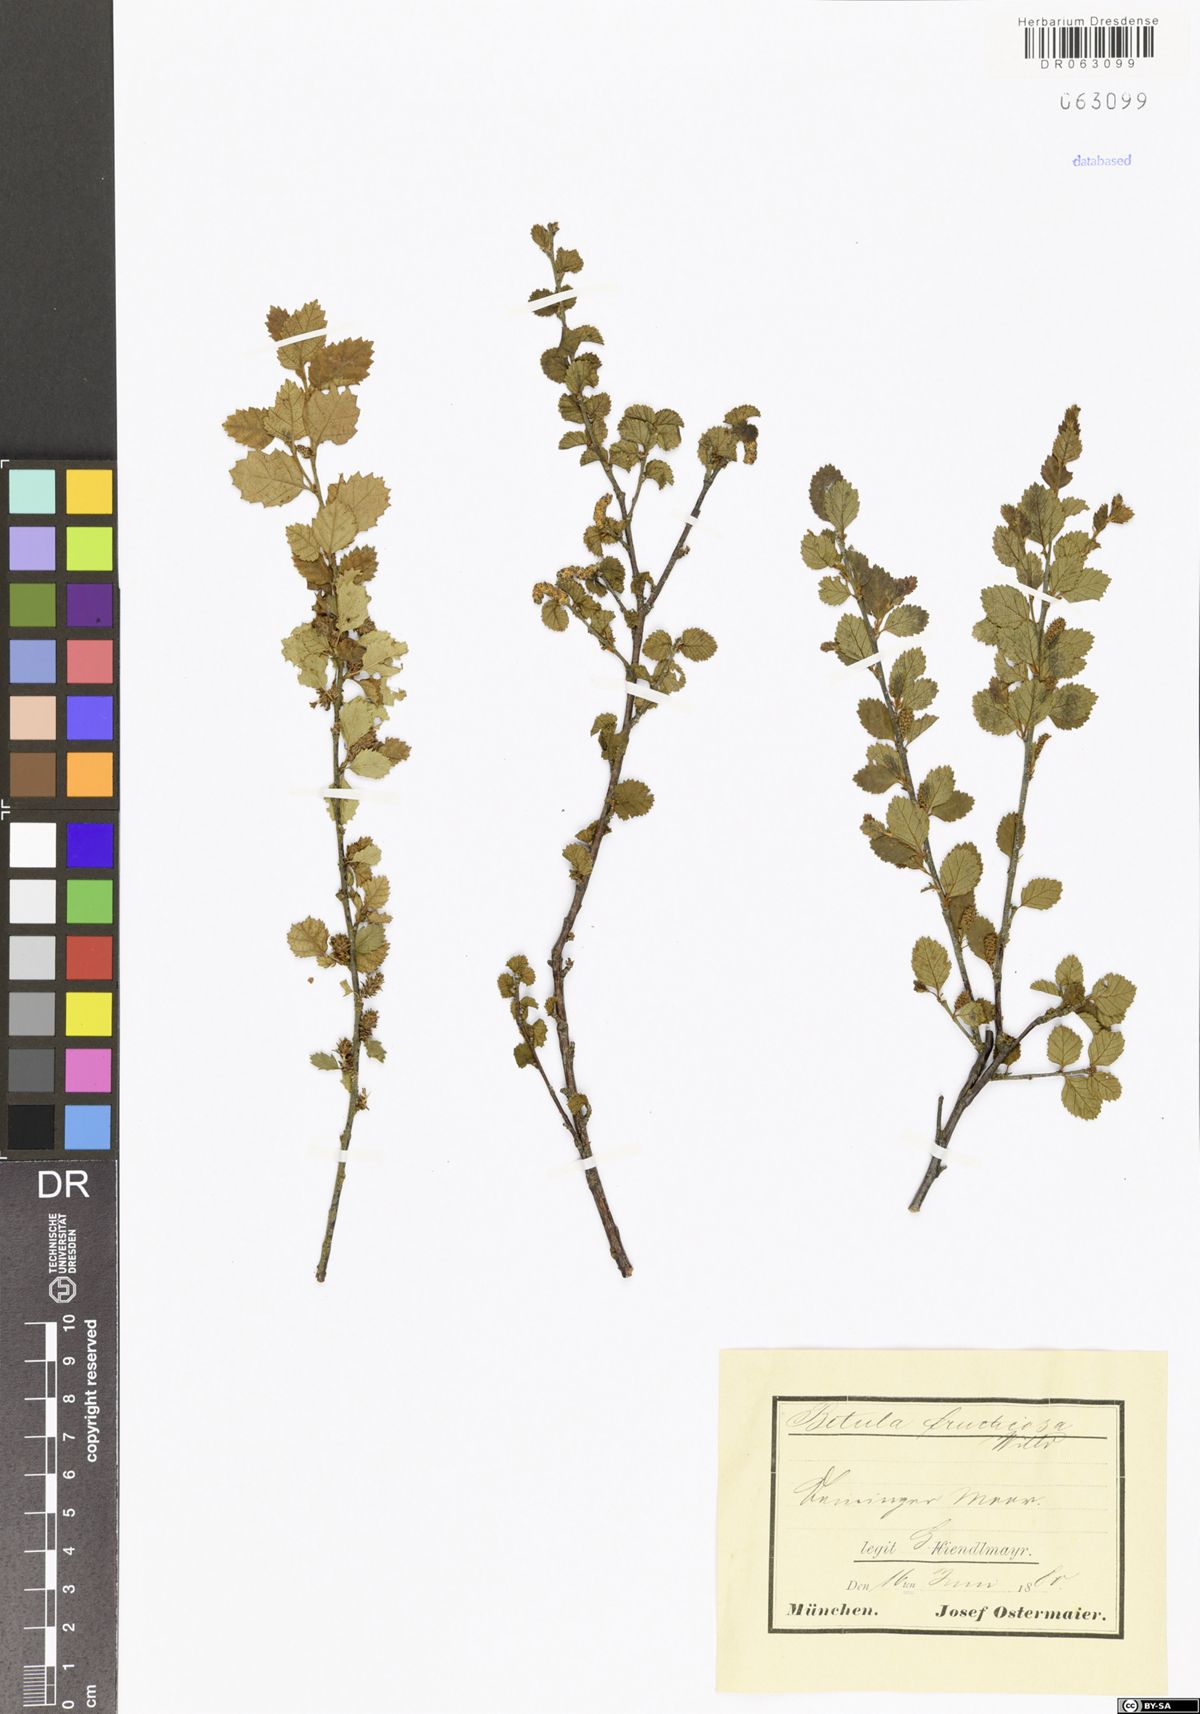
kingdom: Plantae
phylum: Tracheophyta
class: Magnoliopsida
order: Fagales
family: Betulaceae
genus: Betula
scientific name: Betula fruticosa
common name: Japanese bog birch
